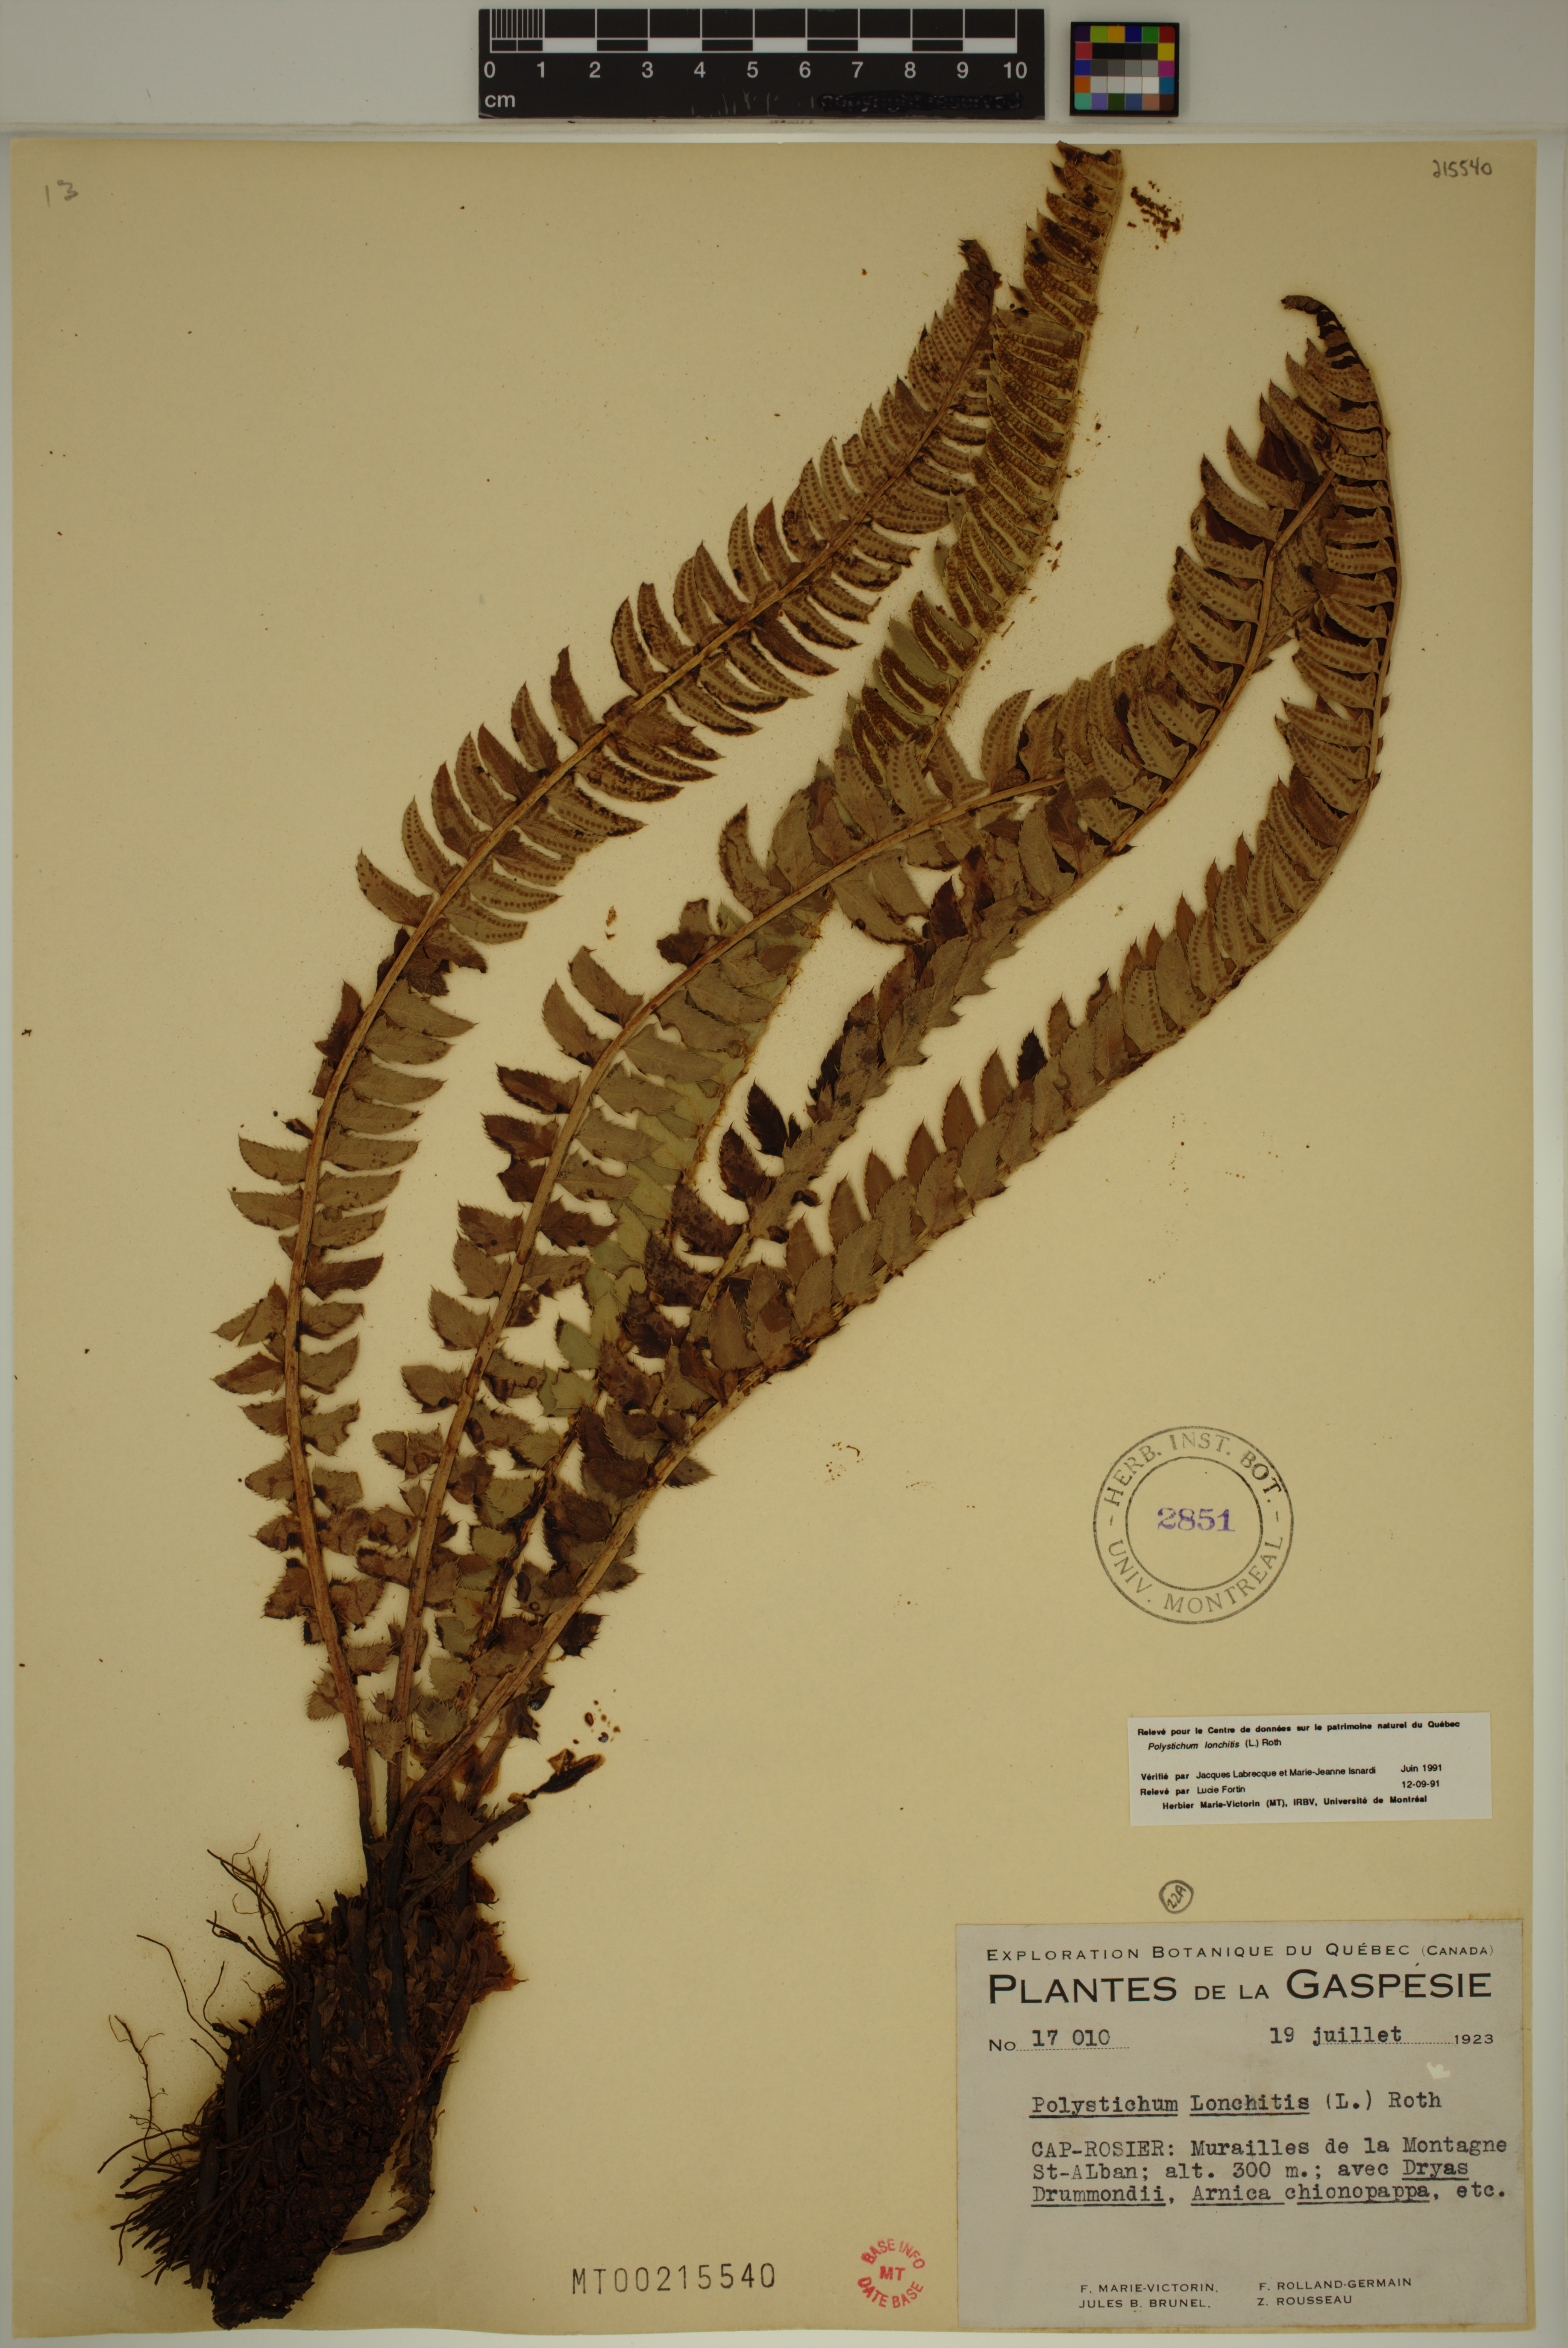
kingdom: Plantae
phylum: Tracheophyta
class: Polypodiopsida
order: Polypodiales
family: Dryopteridaceae
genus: Polystichum
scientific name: Polystichum lonchitis
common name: Holly fern
